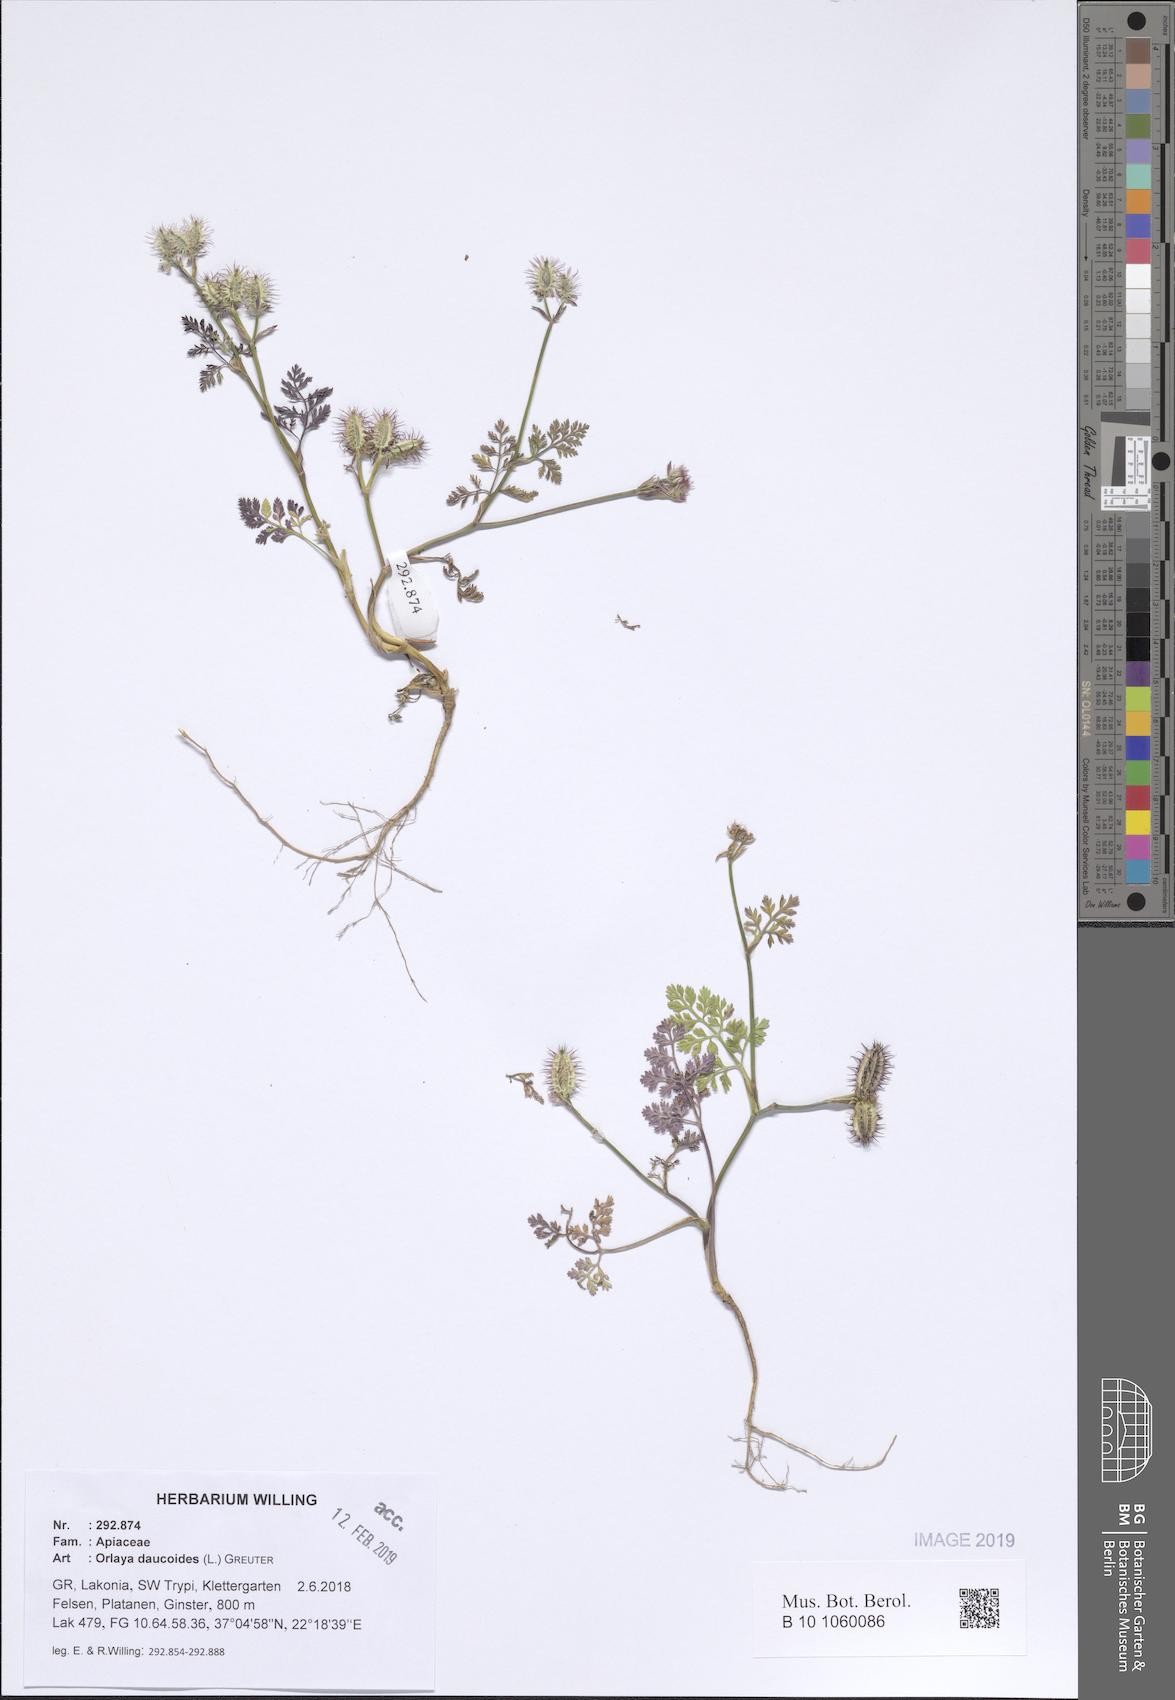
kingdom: Plantae
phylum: Tracheophyta
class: Magnoliopsida
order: Apiales
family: Apiaceae
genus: Orlaya
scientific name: Orlaya daucoides
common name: Flat-fruit orlaya
